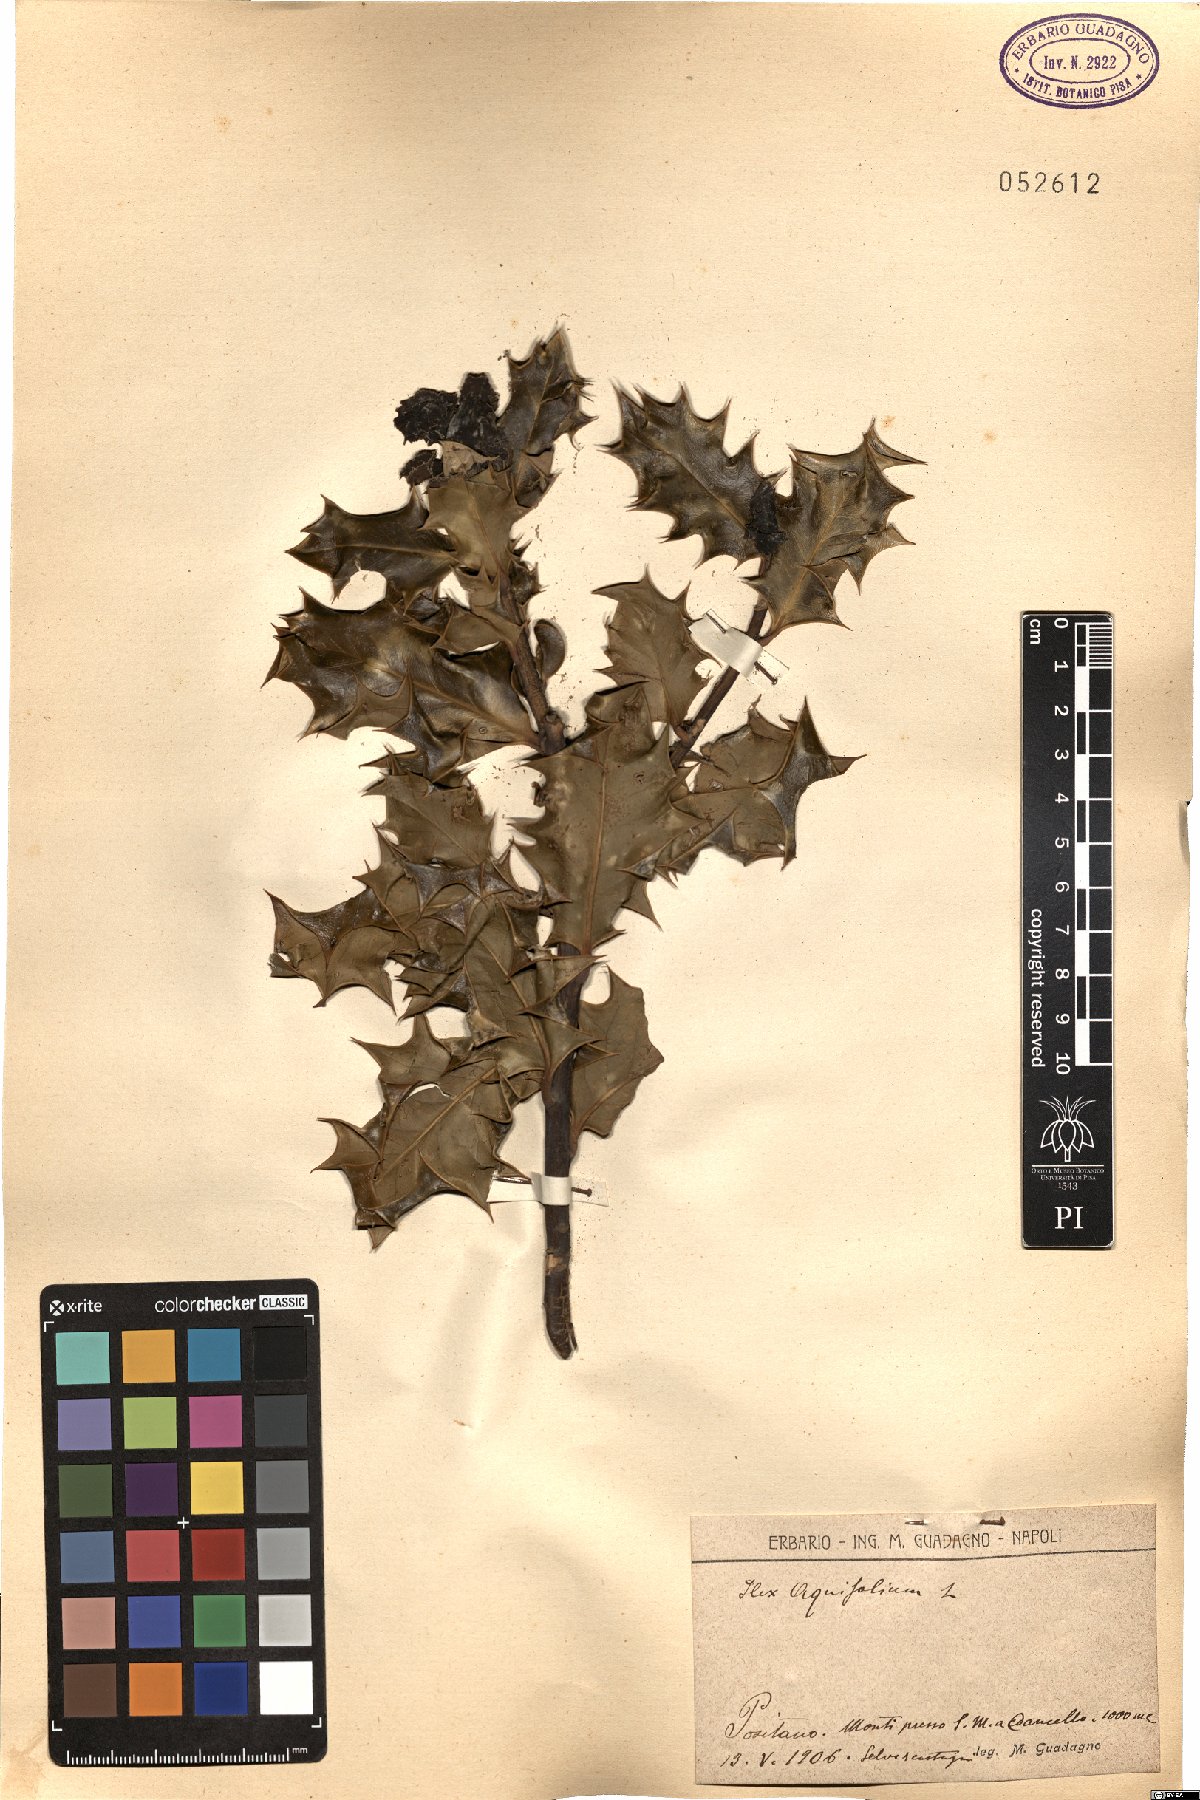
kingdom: Plantae
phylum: Tracheophyta
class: Magnoliopsida
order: Aquifoliales
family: Aquifoliaceae
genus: Ilex
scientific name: Ilex aquifolium
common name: English holly
